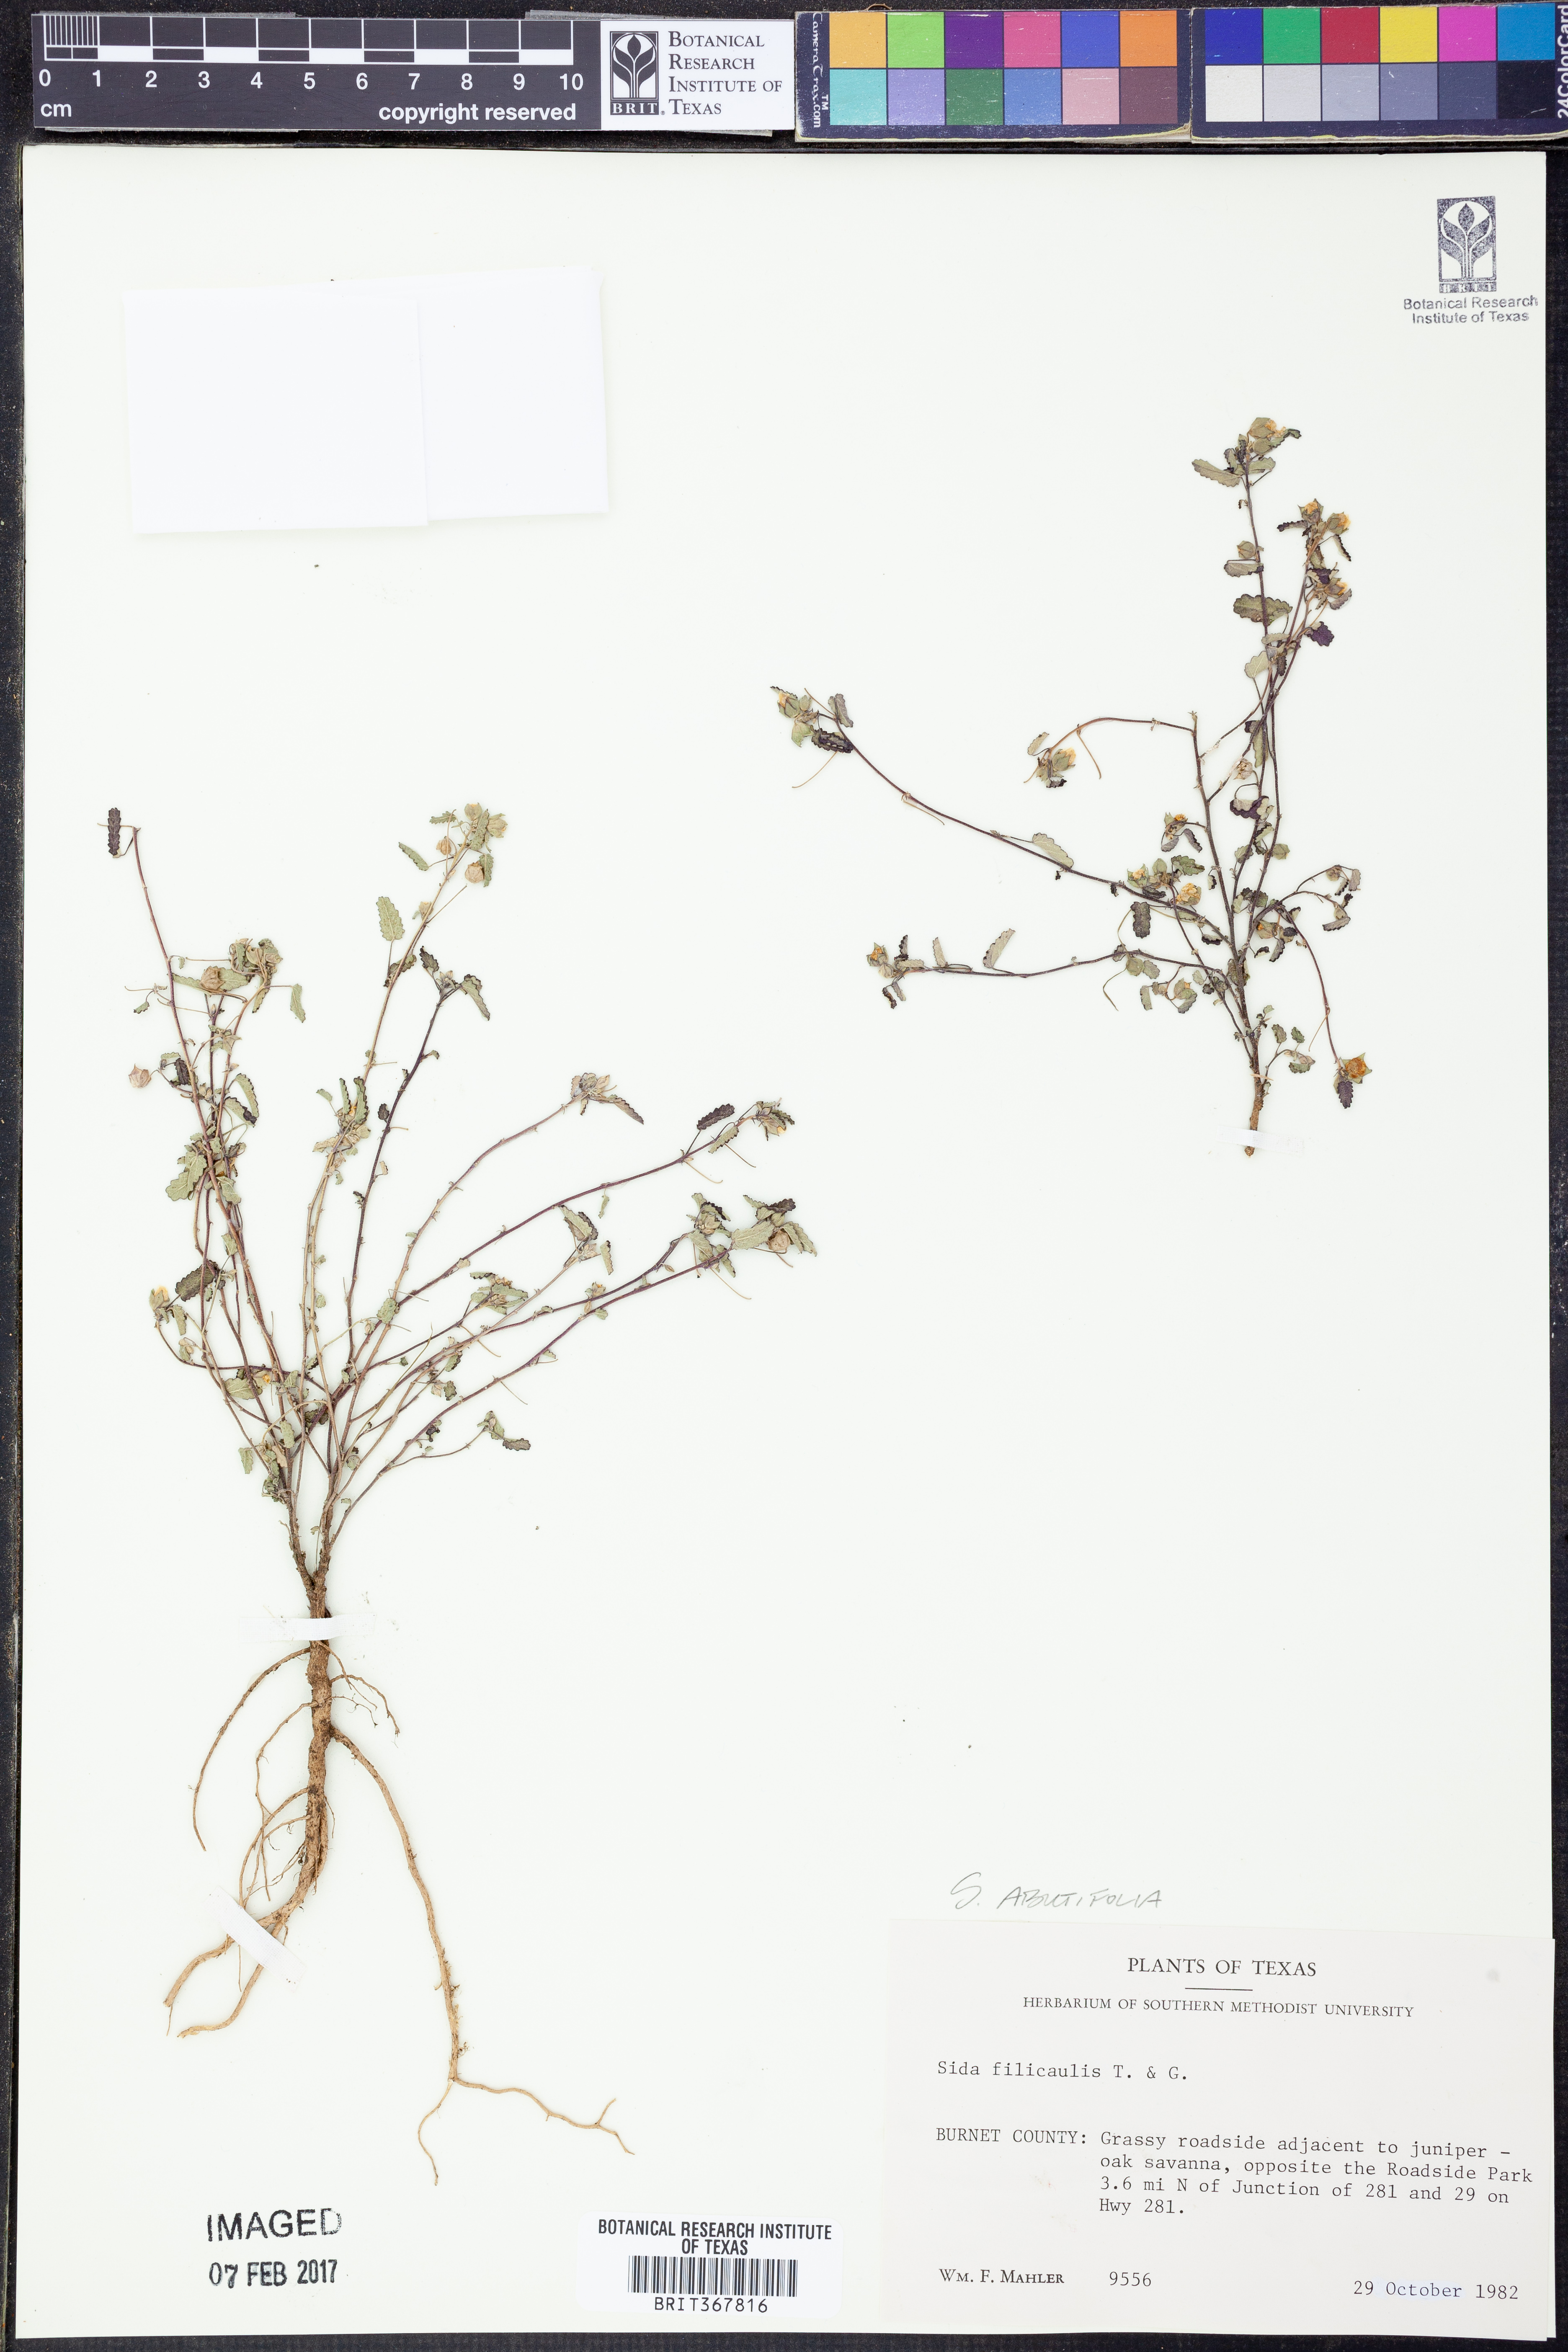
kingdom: Plantae
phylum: Tracheophyta
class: Magnoliopsida
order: Malvales
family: Malvaceae
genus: Sida
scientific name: Sida abutifolia
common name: Spreading fantails
